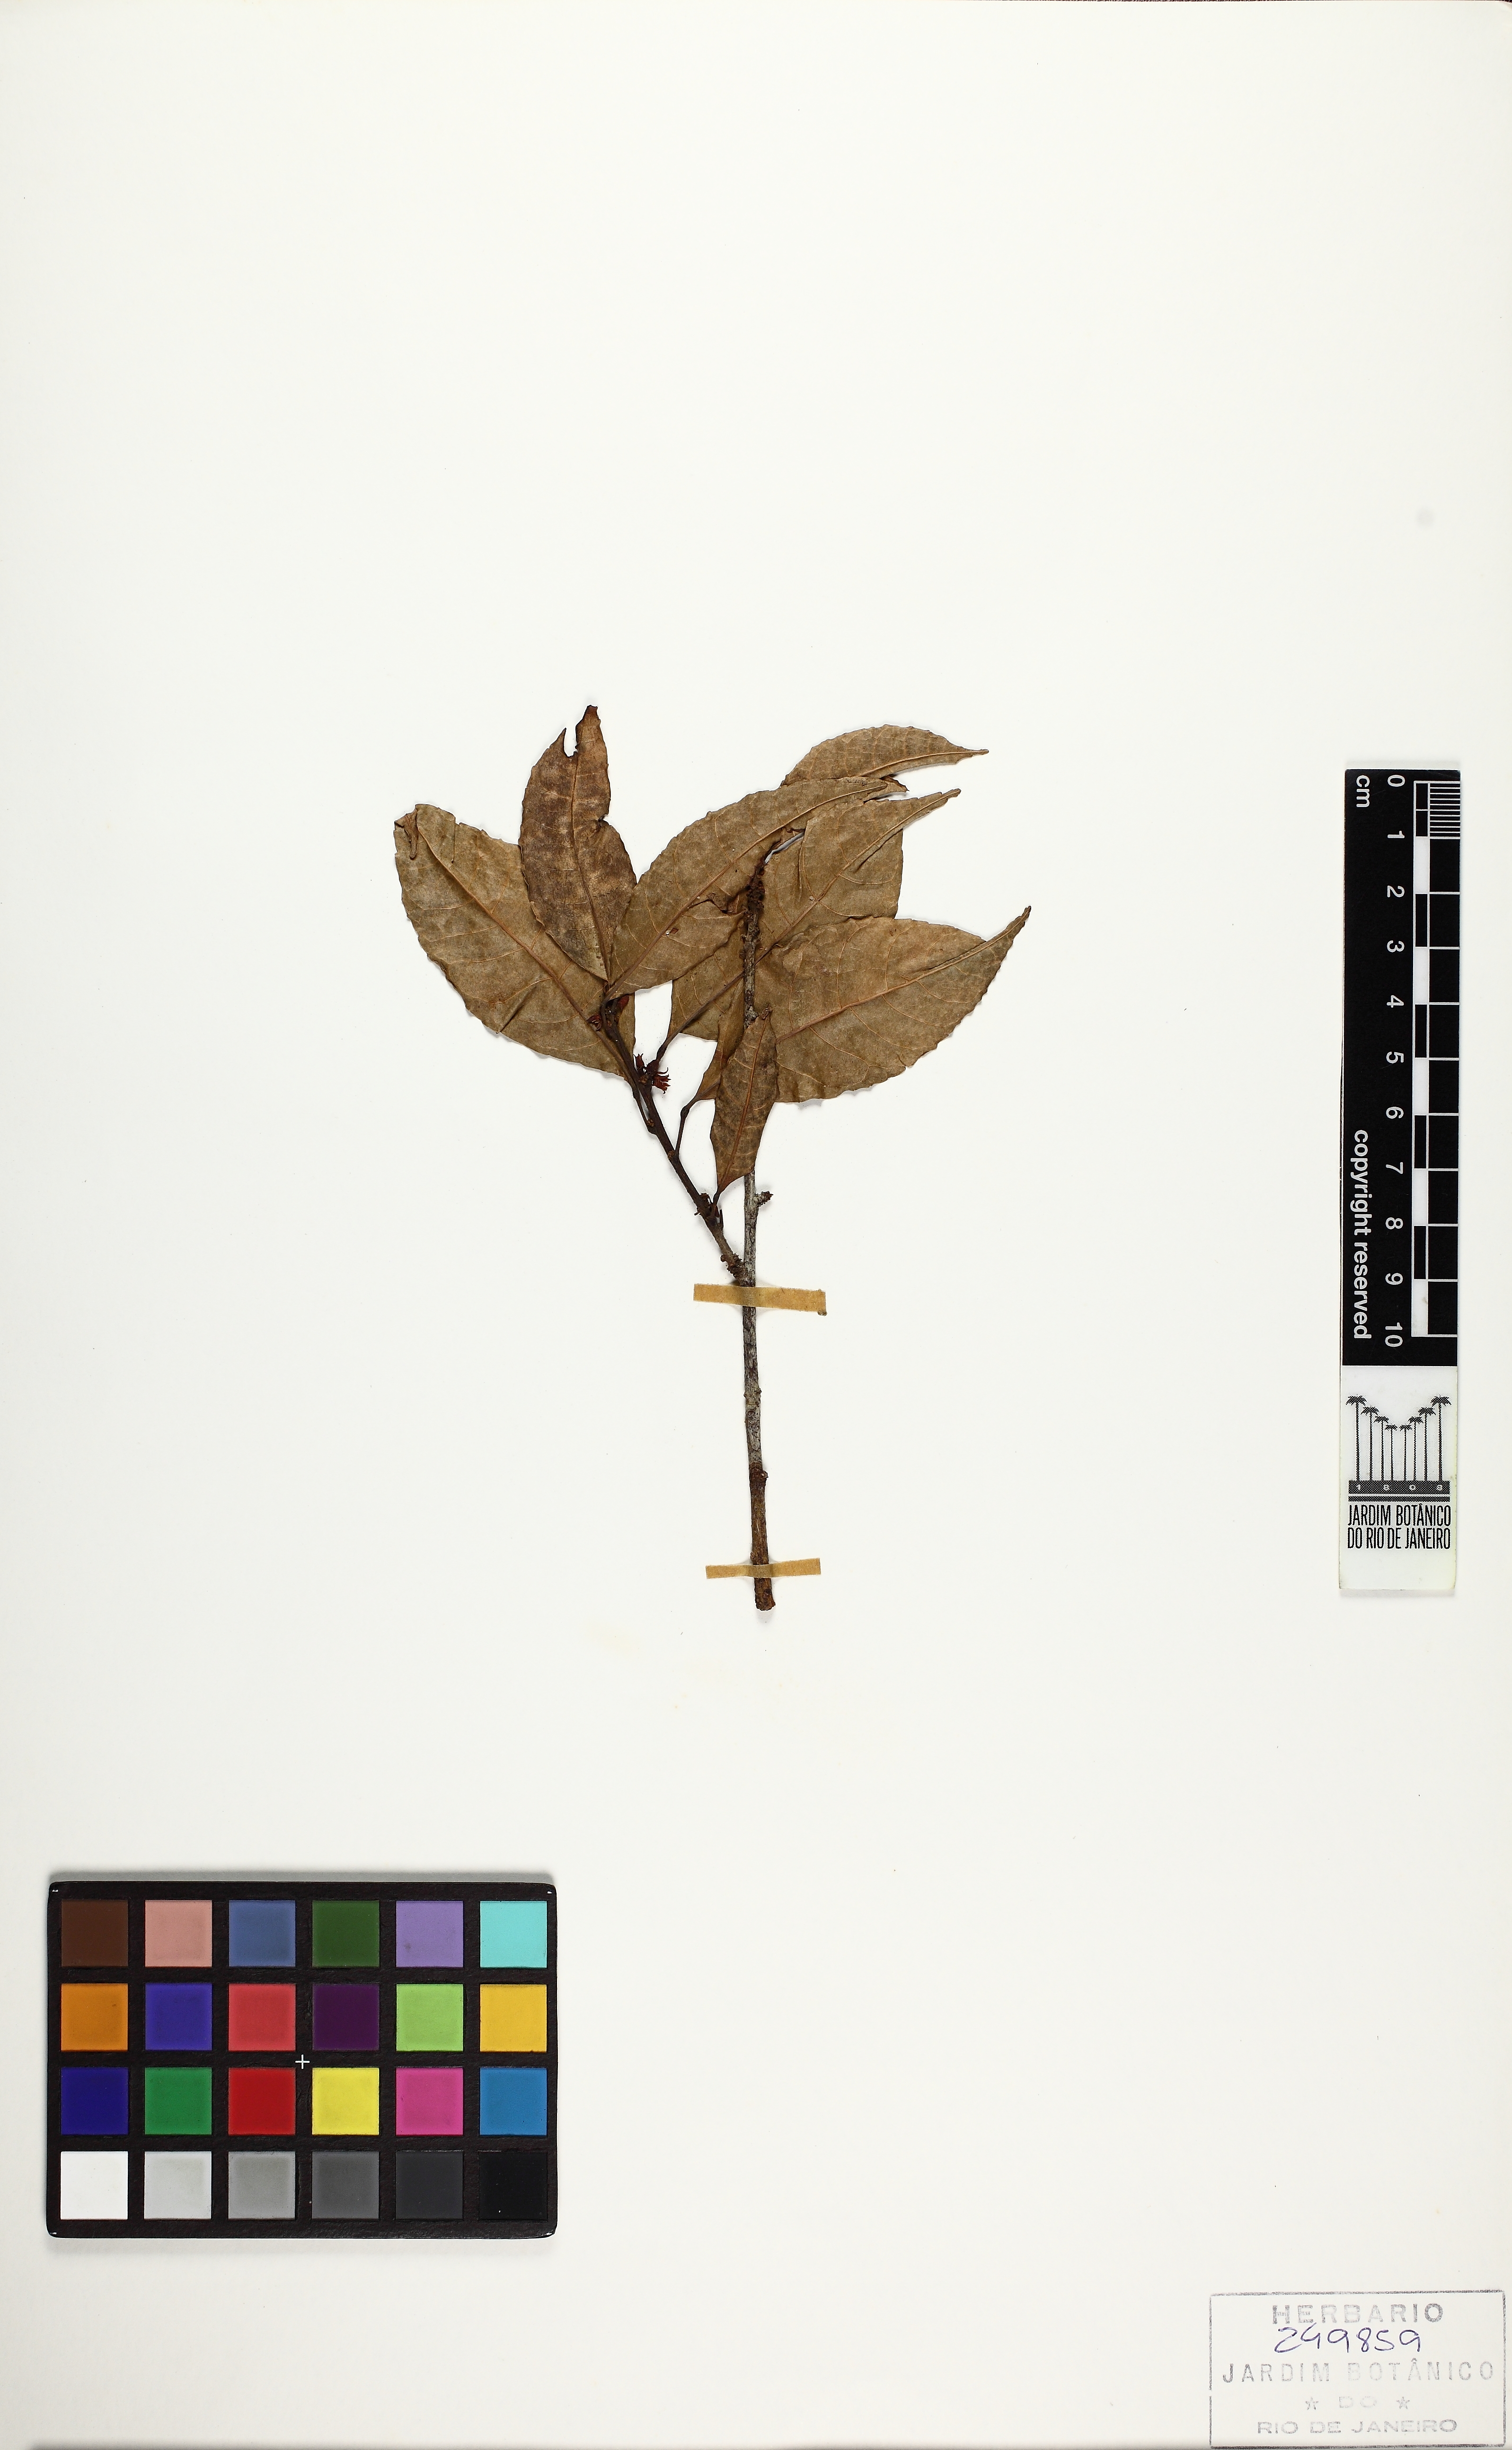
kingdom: Plantae
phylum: Tracheophyta
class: Magnoliopsida
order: Sapindales
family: Burseraceae
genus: Protium
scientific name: Protium unifoliolatum
